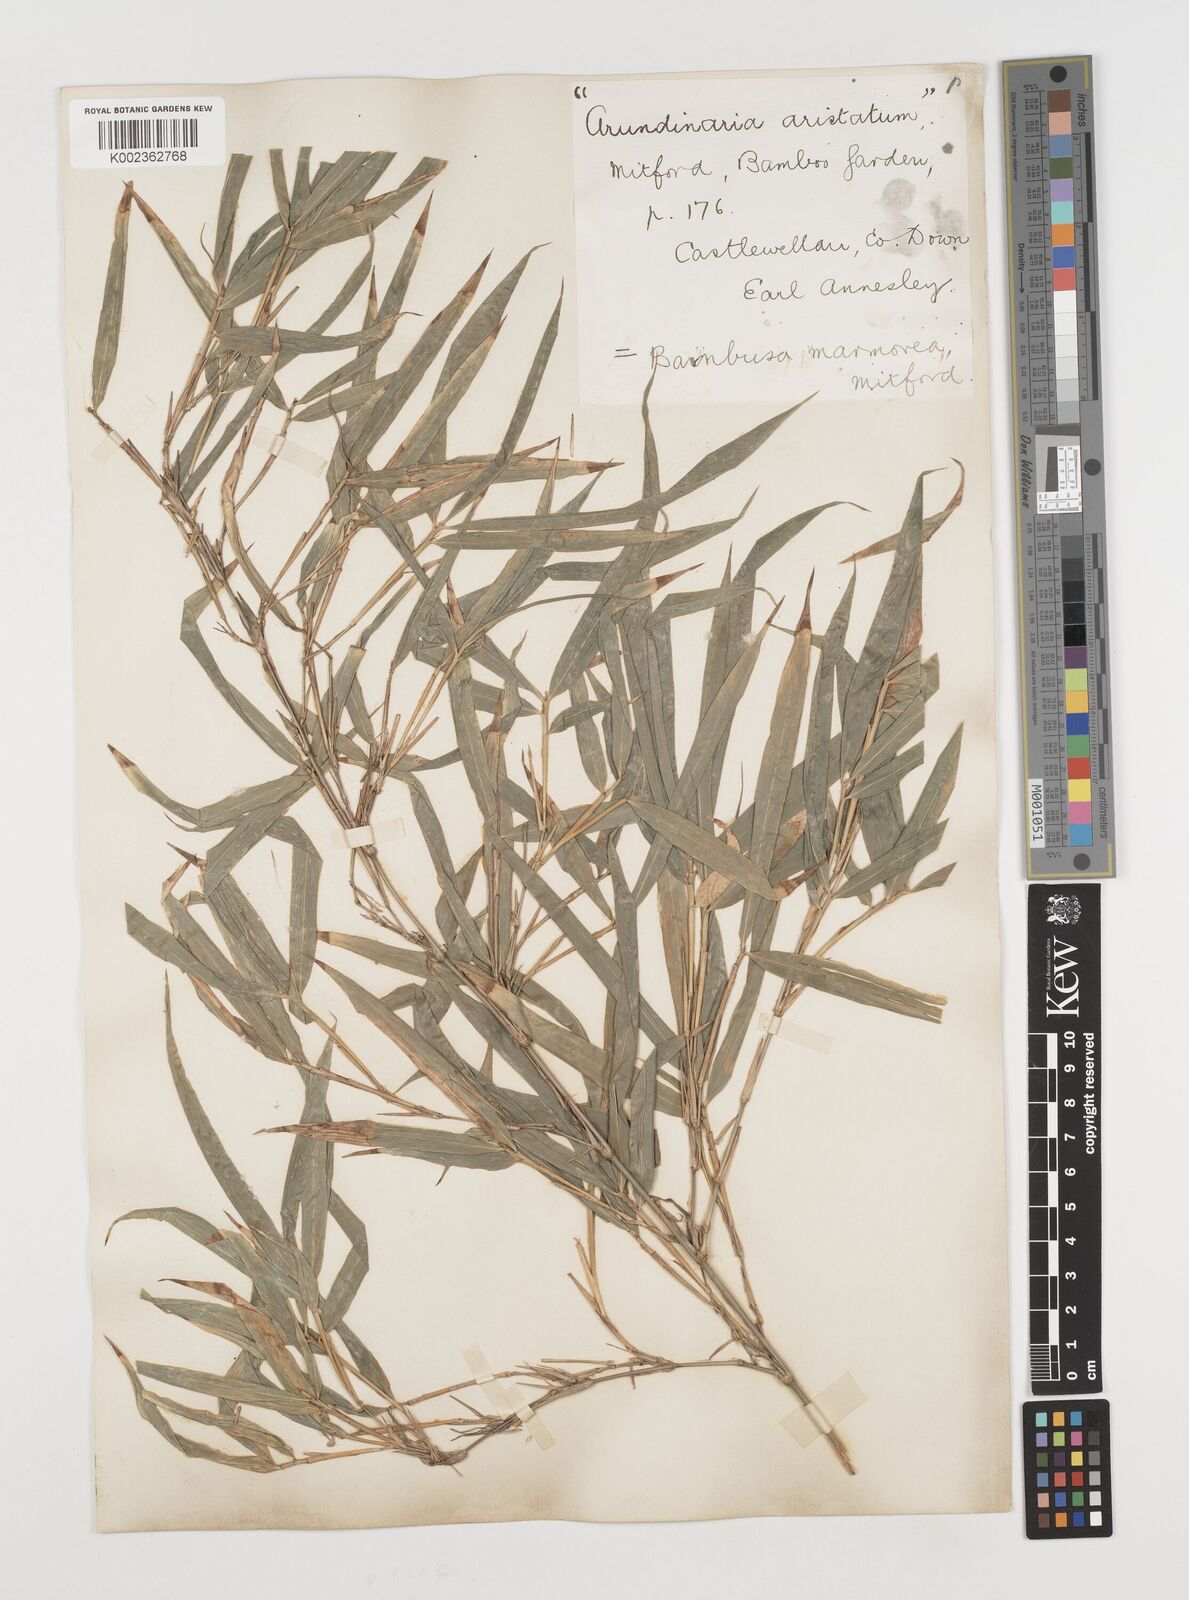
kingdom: Plantae
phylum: Tracheophyta
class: Liliopsida
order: Poales
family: Poaceae
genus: Chimonobambusa
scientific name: Chimonobambusa marmorea
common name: Marbled bamboo
